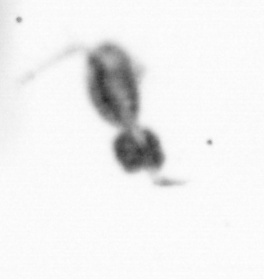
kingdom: Animalia
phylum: Arthropoda
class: Copepoda
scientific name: Copepoda
